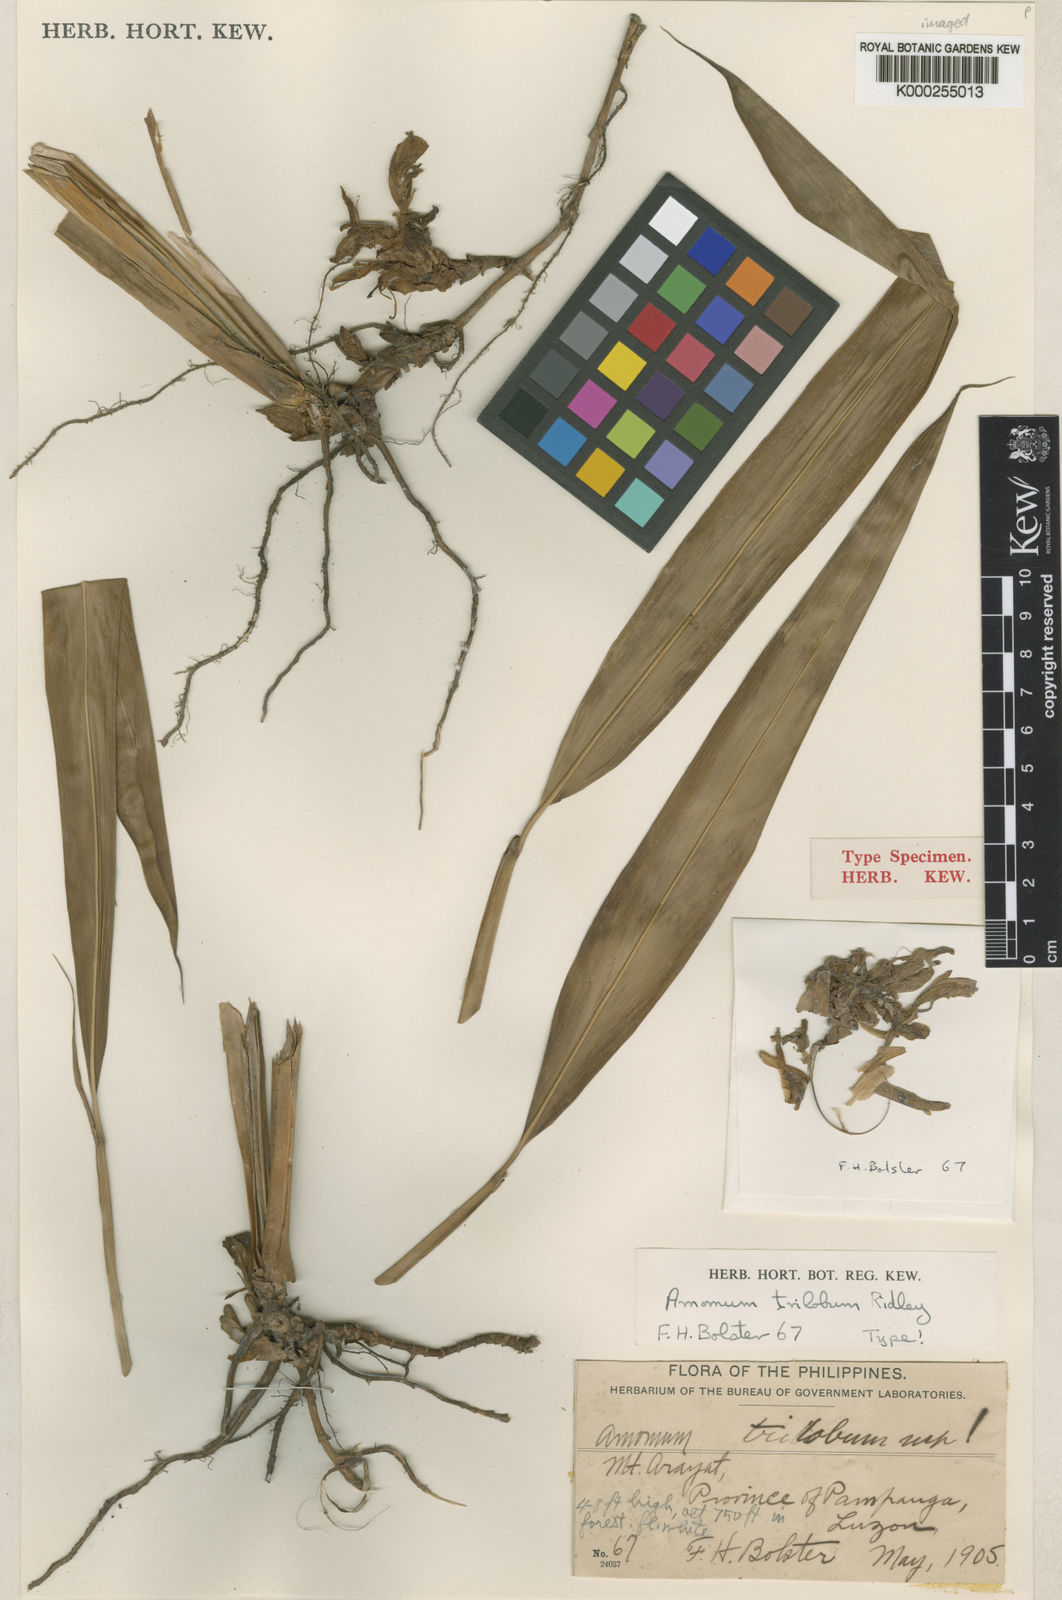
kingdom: Plantae
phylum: Tracheophyta
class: Liliopsida
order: Zingiberales
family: Zingiberaceae
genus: Wurfbainia
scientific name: Wurfbainia hedyosma
